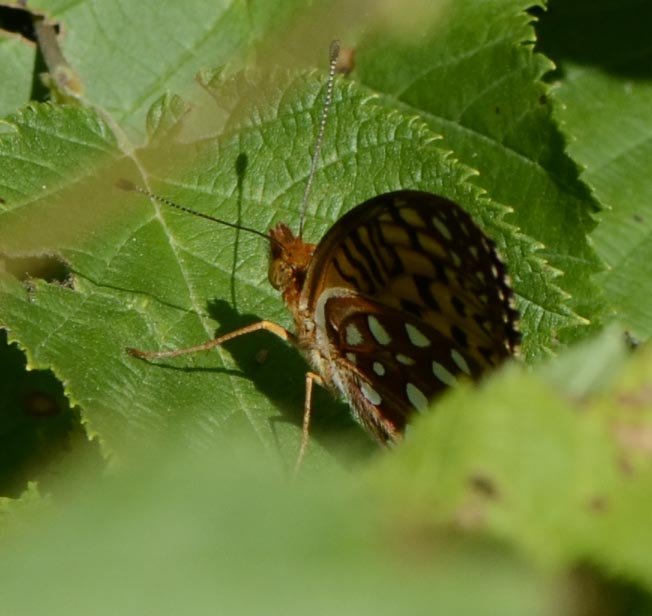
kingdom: Animalia
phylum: Arthropoda
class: Insecta
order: Lepidoptera
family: Nymphalidae
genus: Speyeria
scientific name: Speyeria
